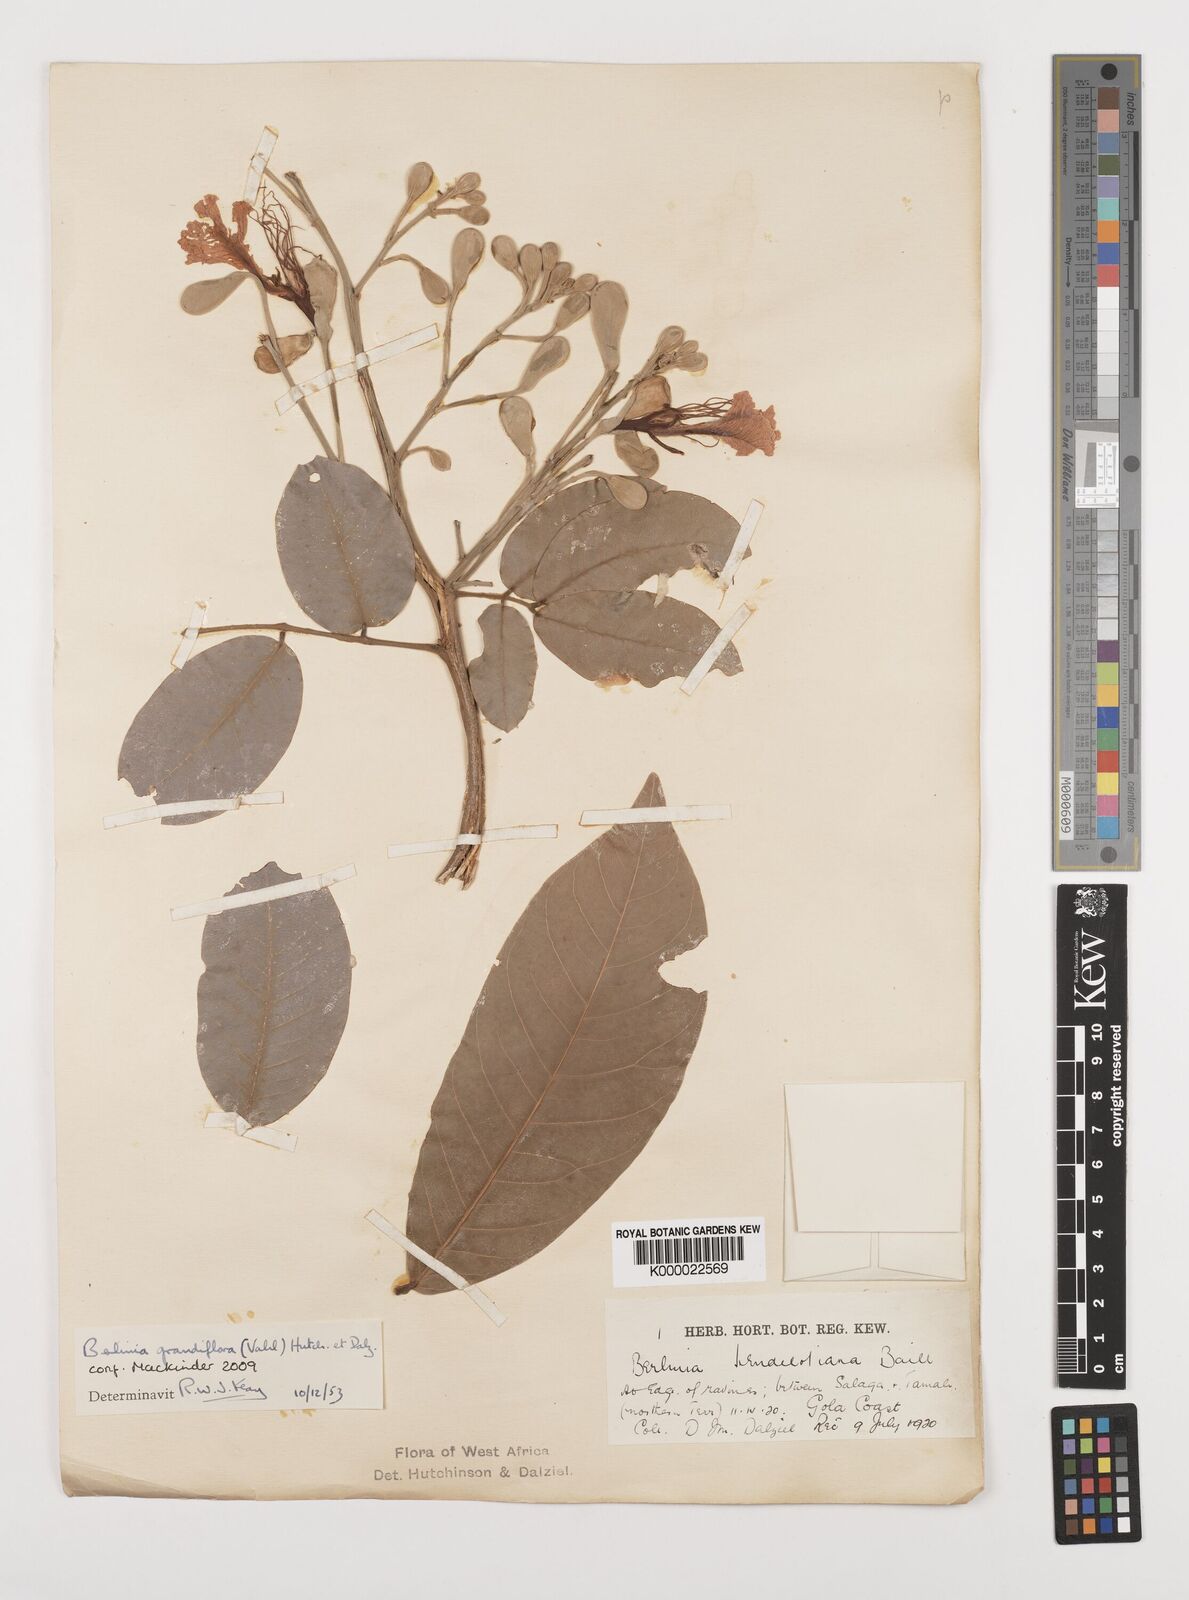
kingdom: Plantae
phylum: Tracheophyta
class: Magnoliopsida
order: Fabales
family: Fabaceae
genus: Berlinia
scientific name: Berlinia grandiflora
